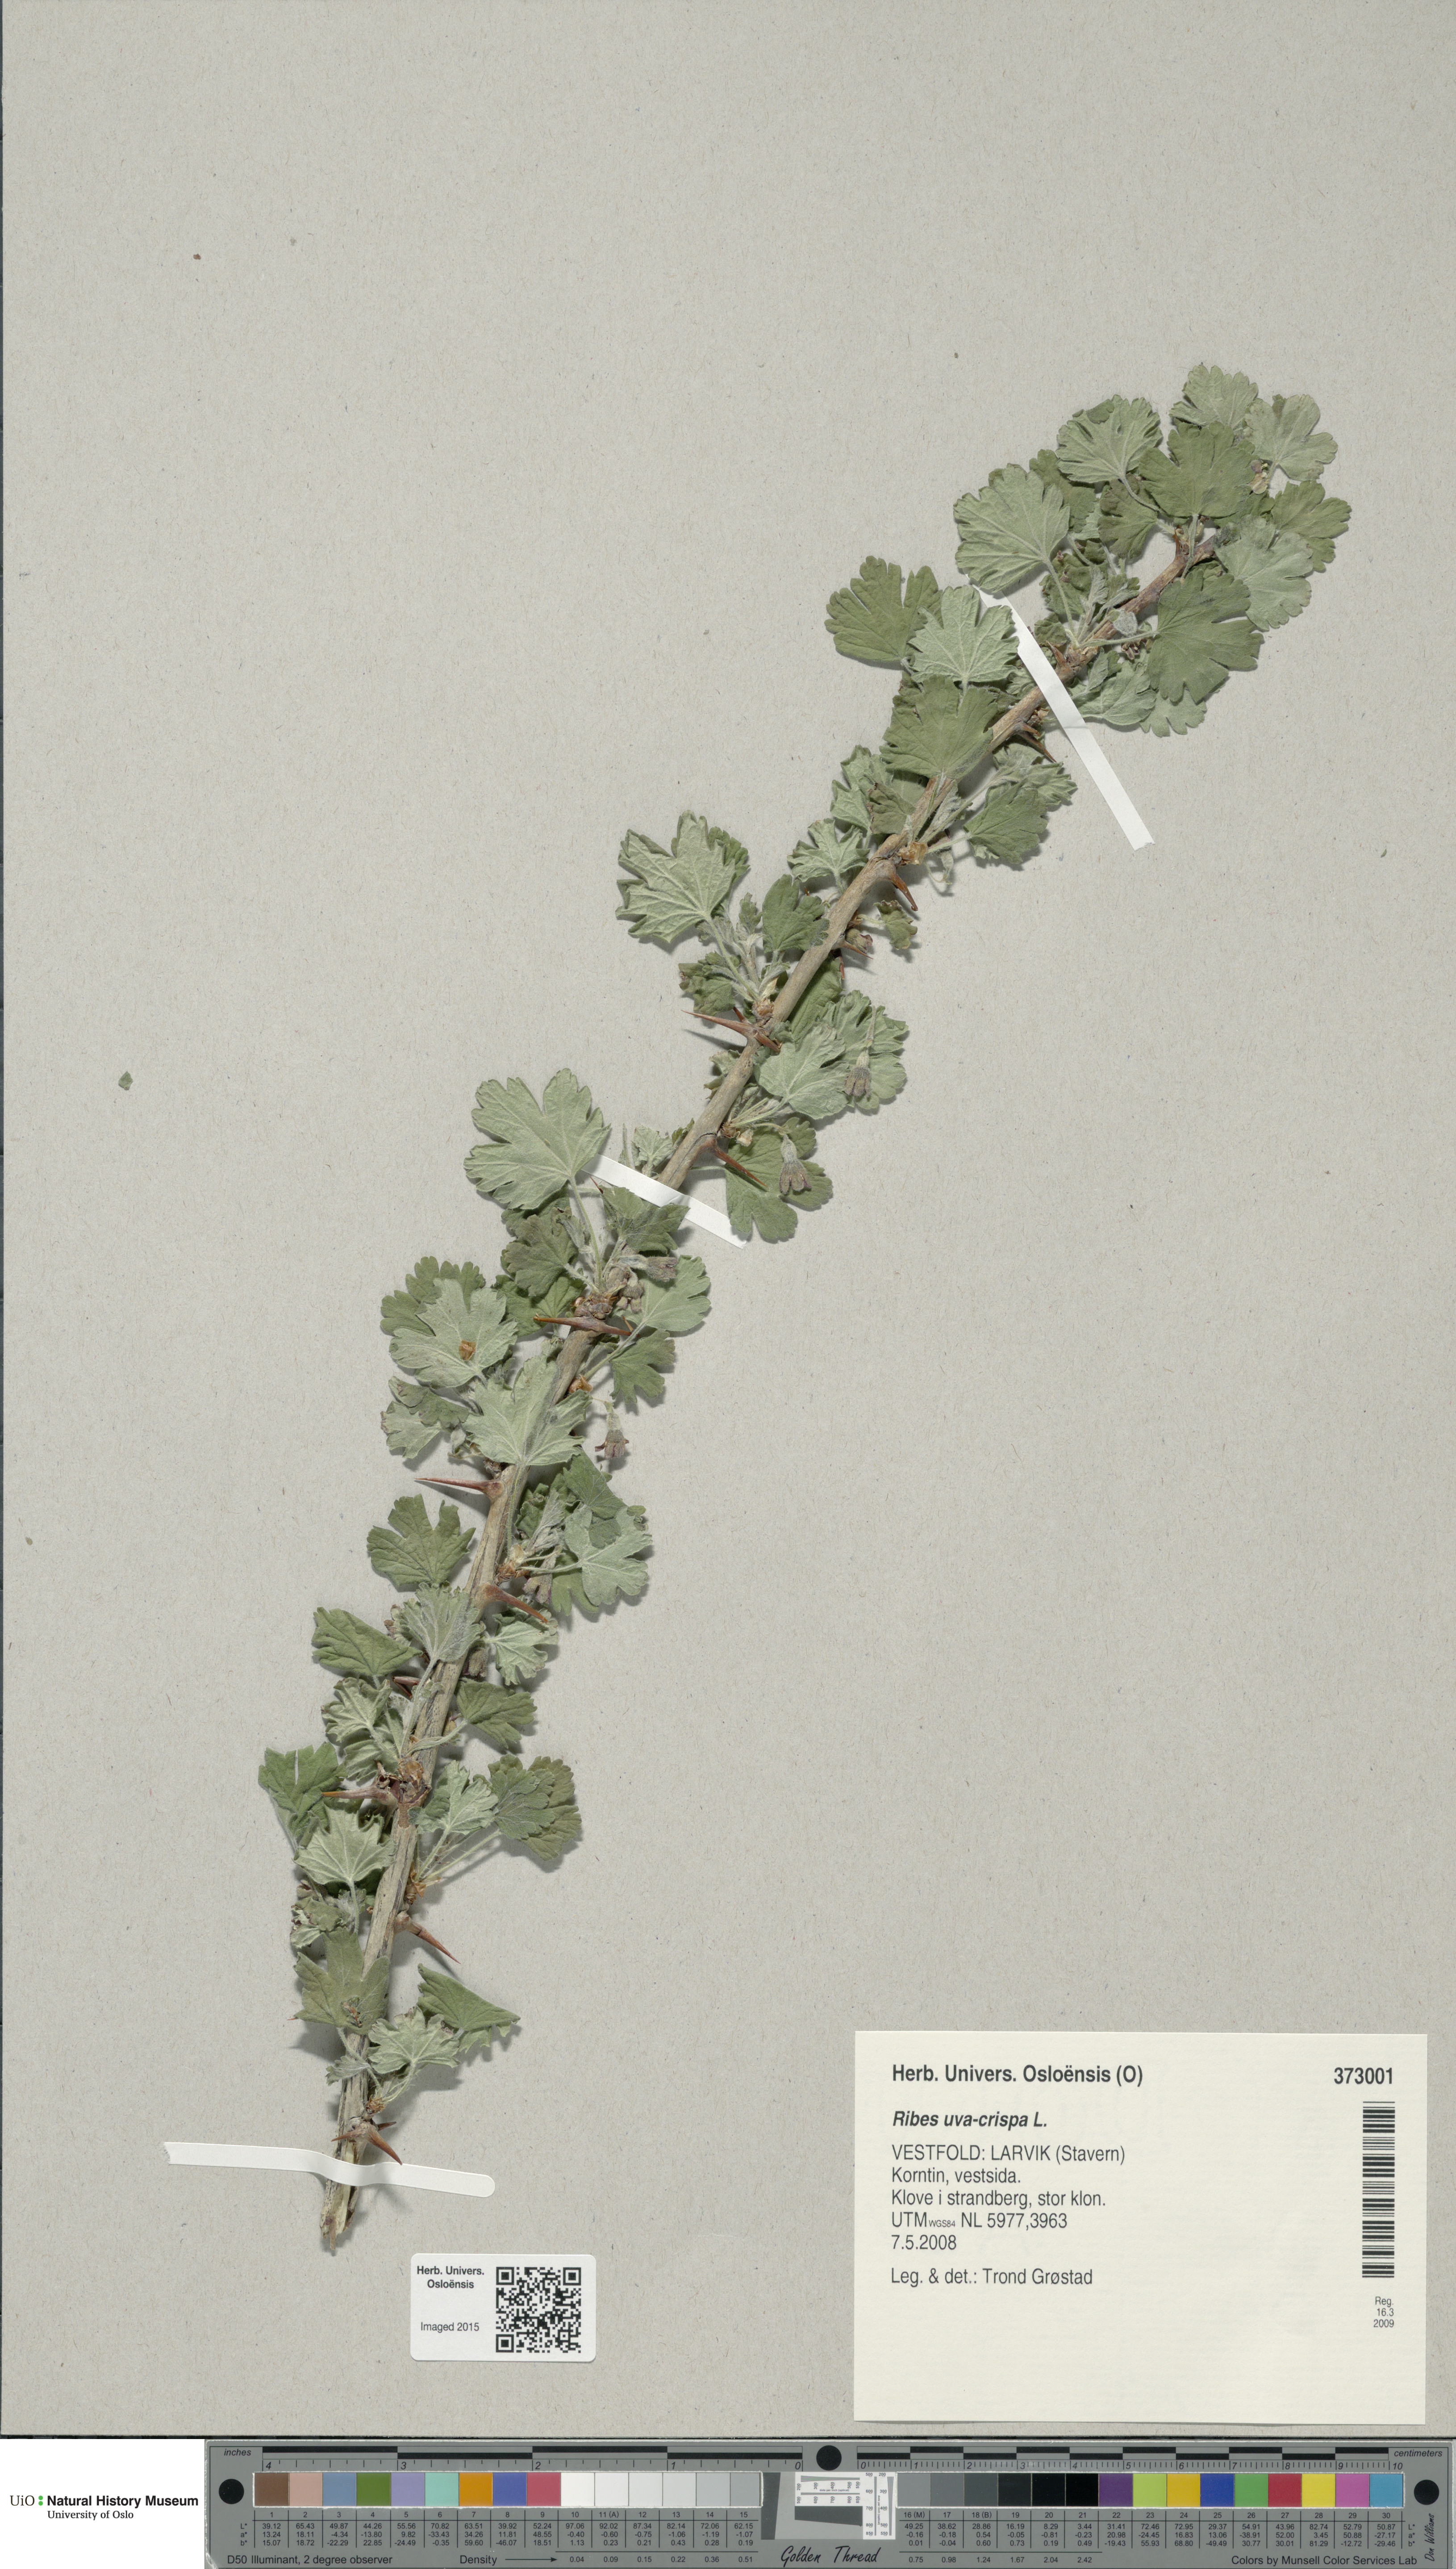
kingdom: Plantae
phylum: Tracheophyta
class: Magnoliopsida
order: Saxifragales
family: Grossulariaceae
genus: Ribes
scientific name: Ribes uva-crispa
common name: Gooseberry
